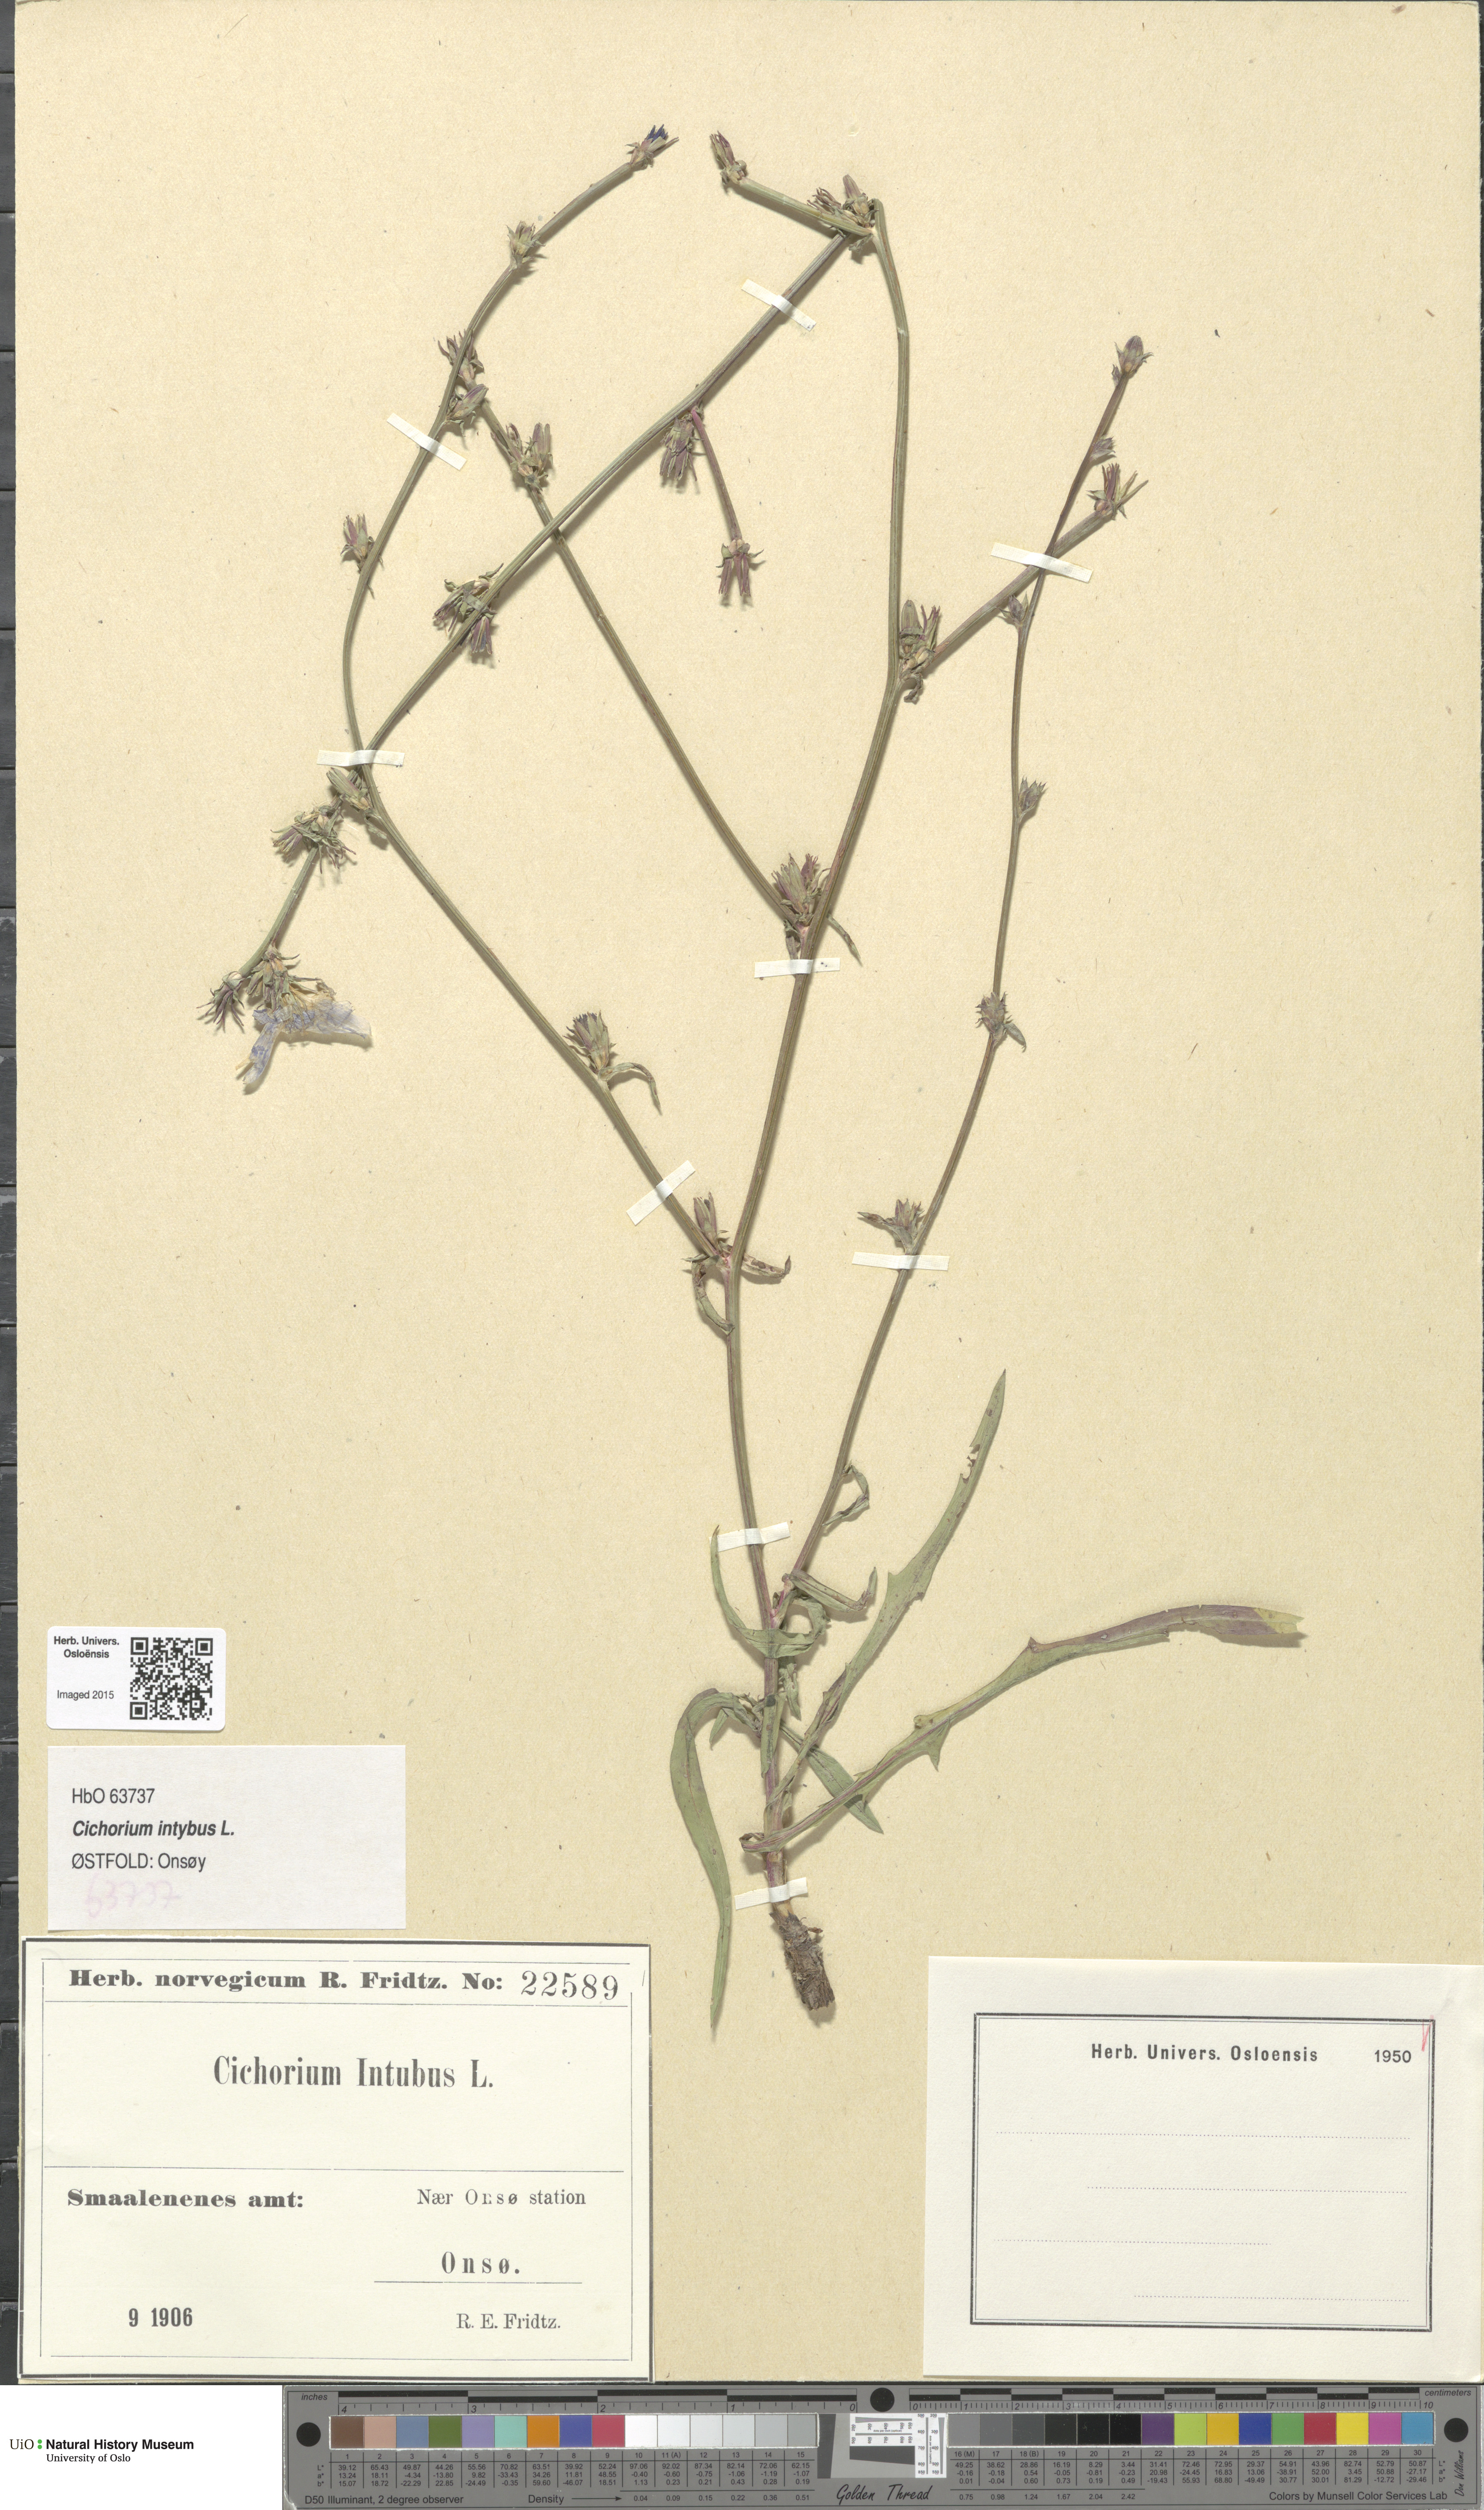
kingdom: Plantae
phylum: Tracheophyta
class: Magnoliopsida
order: Asterales
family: Asteraceae
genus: Cichorium
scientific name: Cichorium intybus
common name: Chicory
